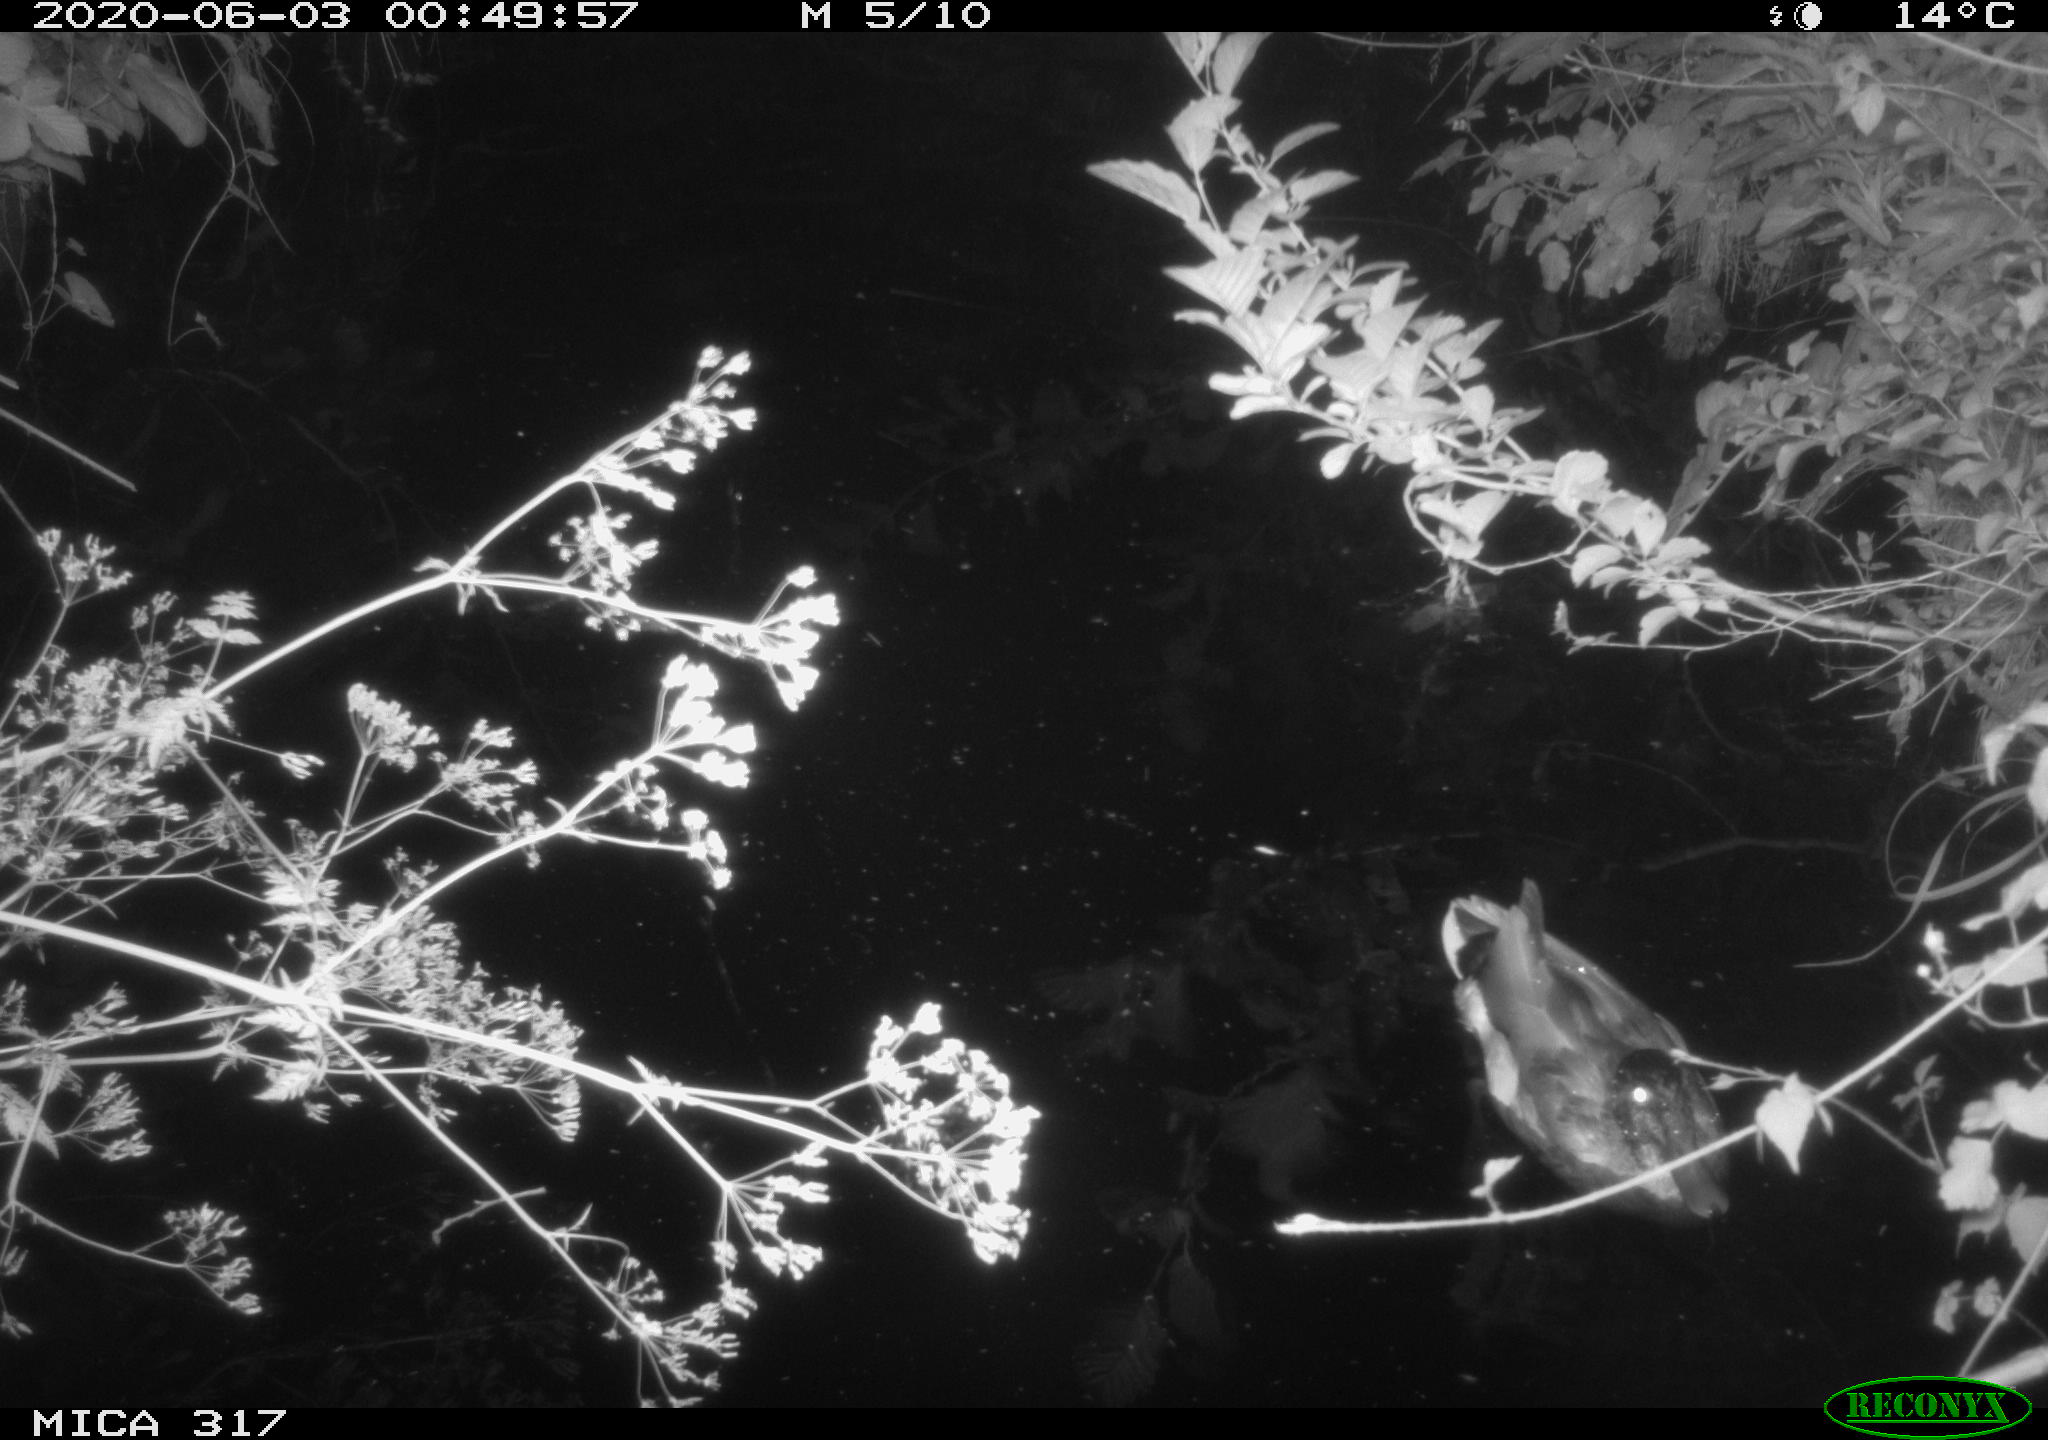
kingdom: Animalia
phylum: Chordata
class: Aves
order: Anseriformes
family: Anatidae
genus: Anas
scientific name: Anas platyrhynchos
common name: Mallard
